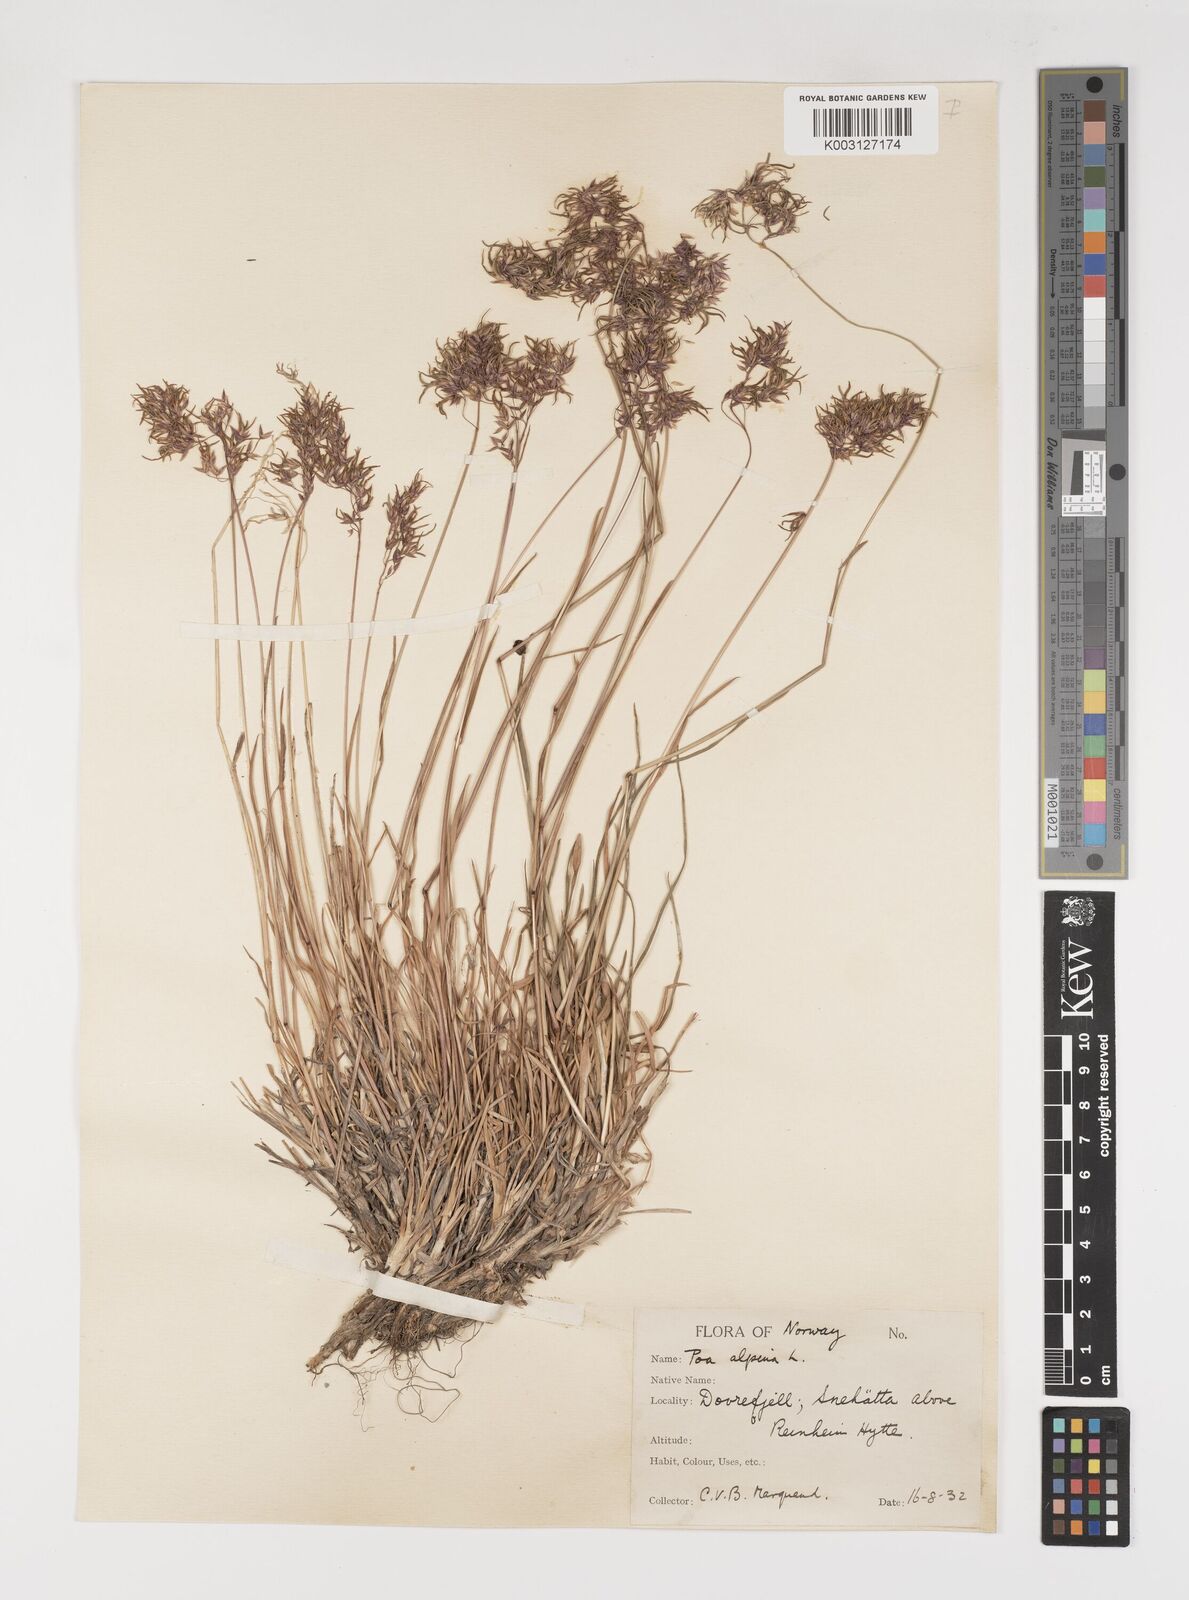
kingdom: Plantae
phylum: Tracheophyta
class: Liliopsida
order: Poales
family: Poaceae
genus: Poa
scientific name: Poa alpina
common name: Alpine bluegrass
